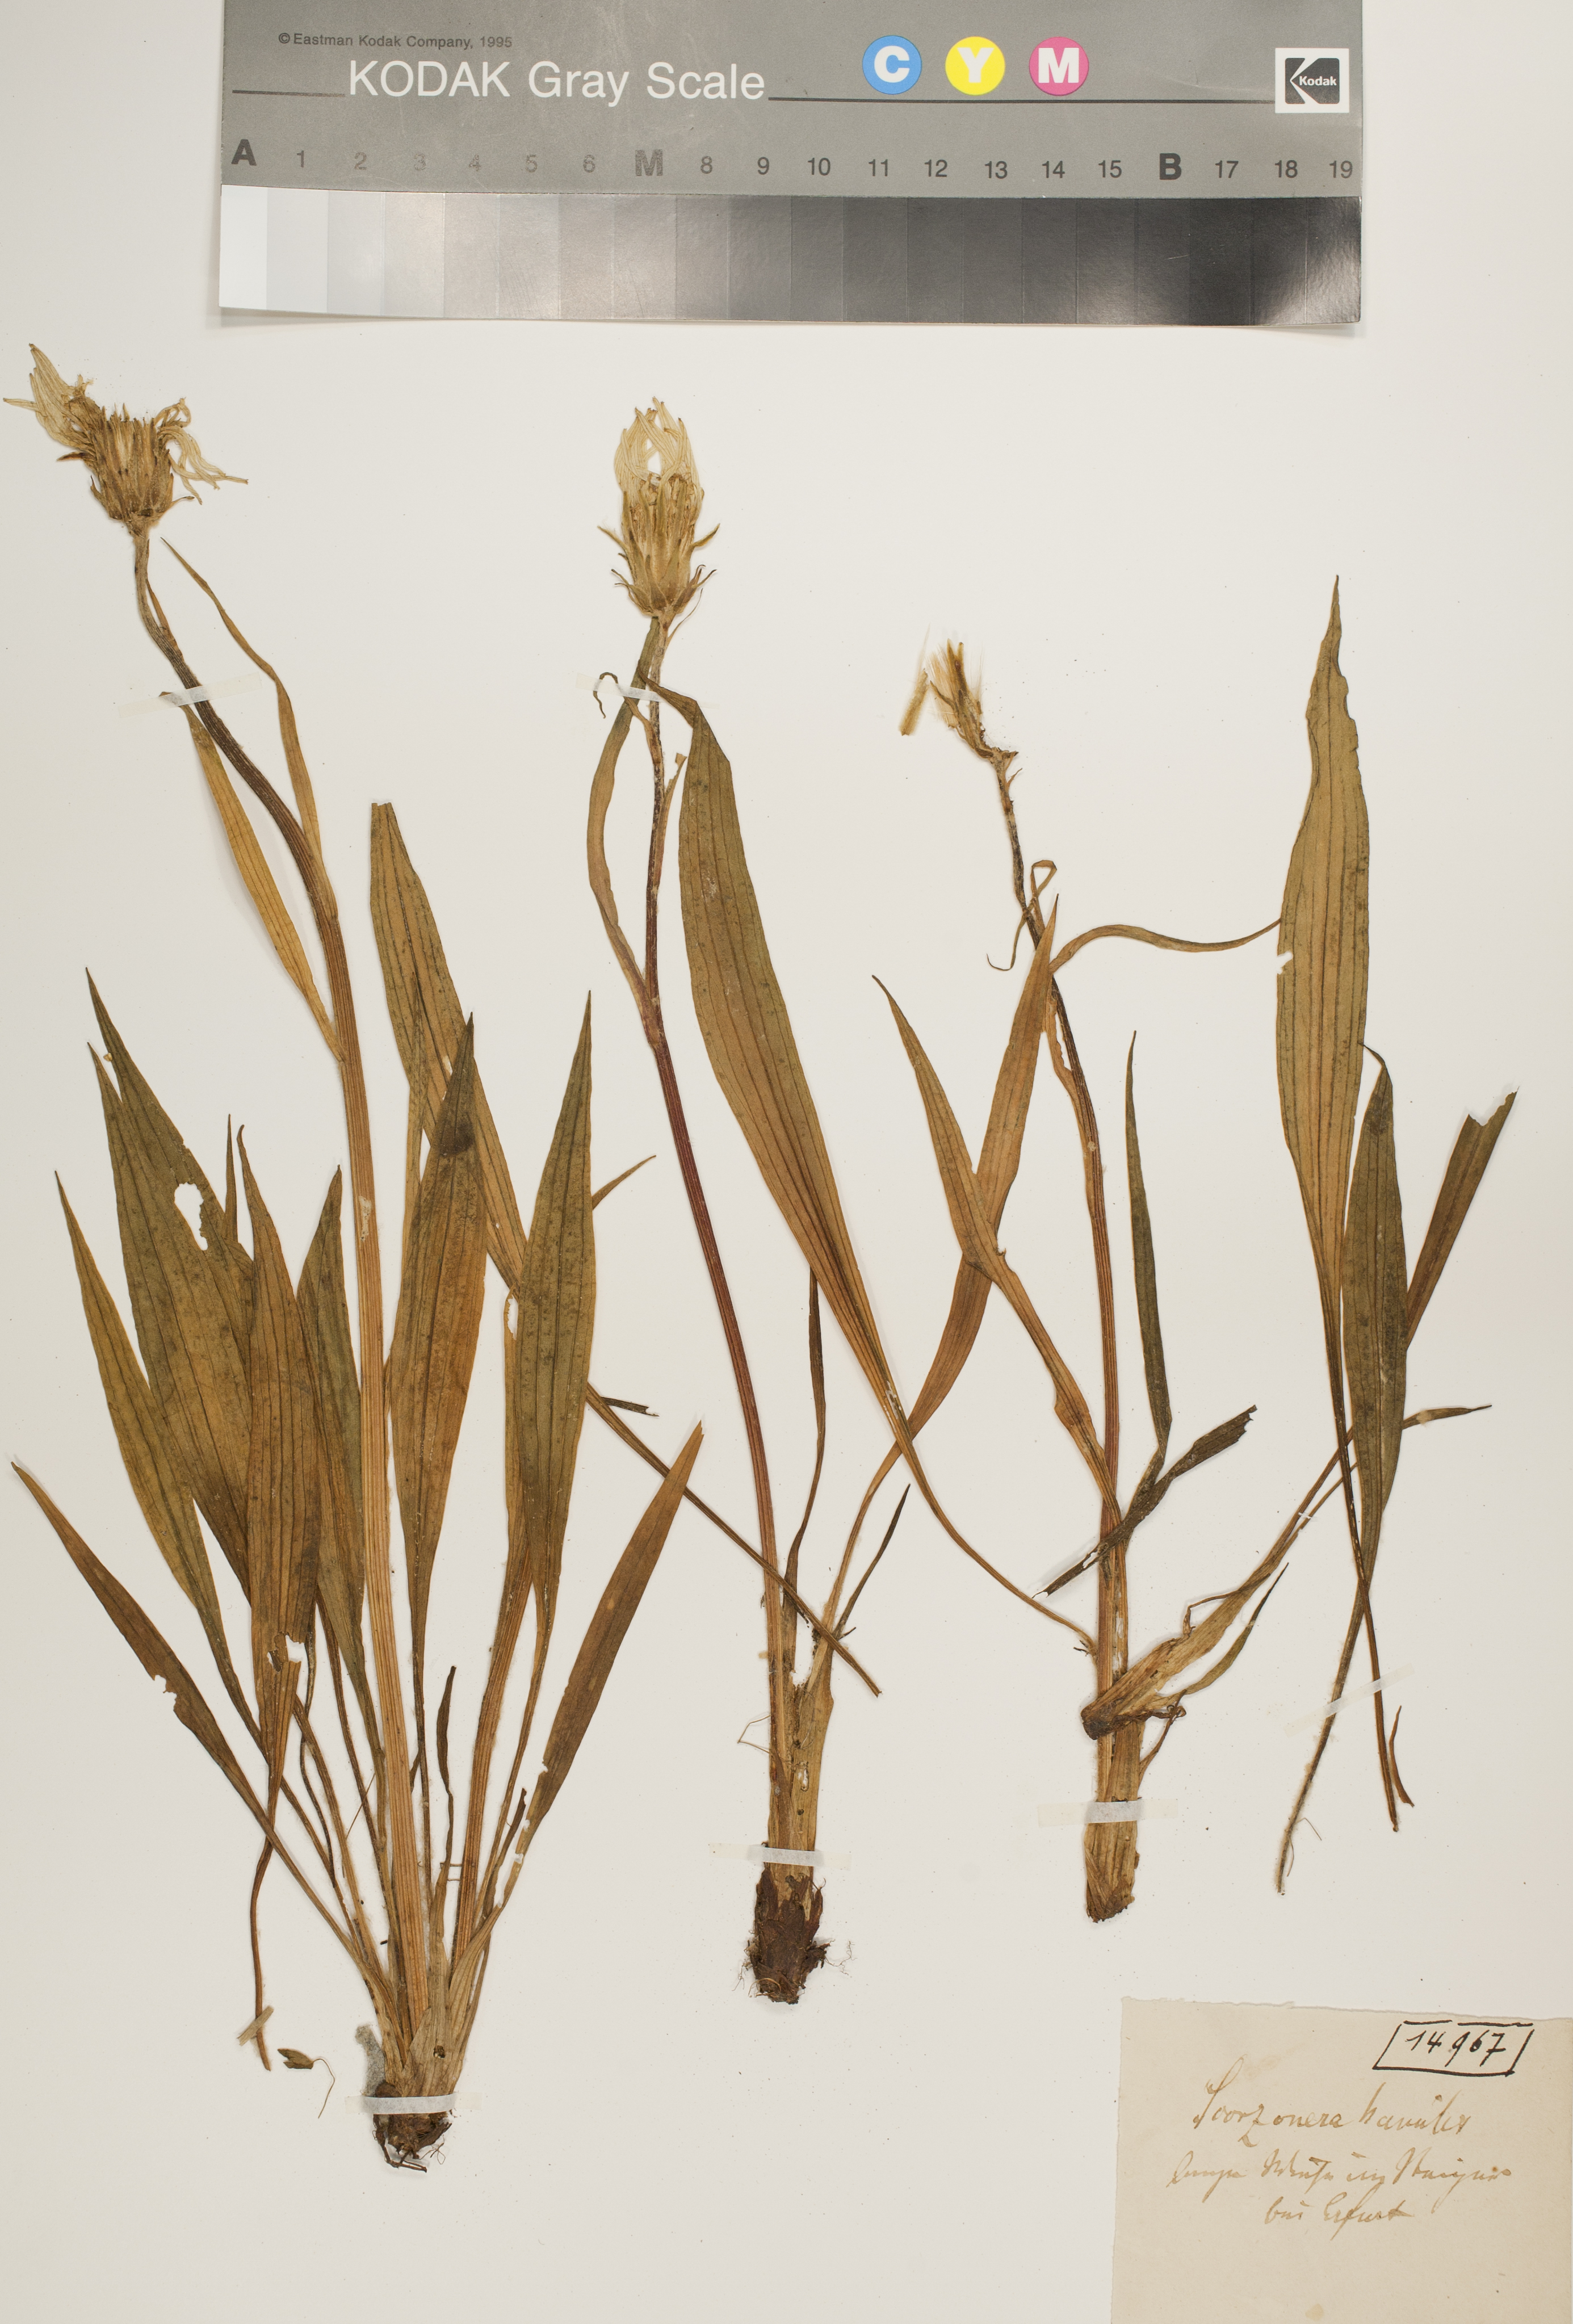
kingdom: Plantae
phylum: Tracheophyta
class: Magnoliopsida
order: Asterales
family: Asteraceae
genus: Scorzonera
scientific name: Scorzonera humilis
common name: Viper's-grass
